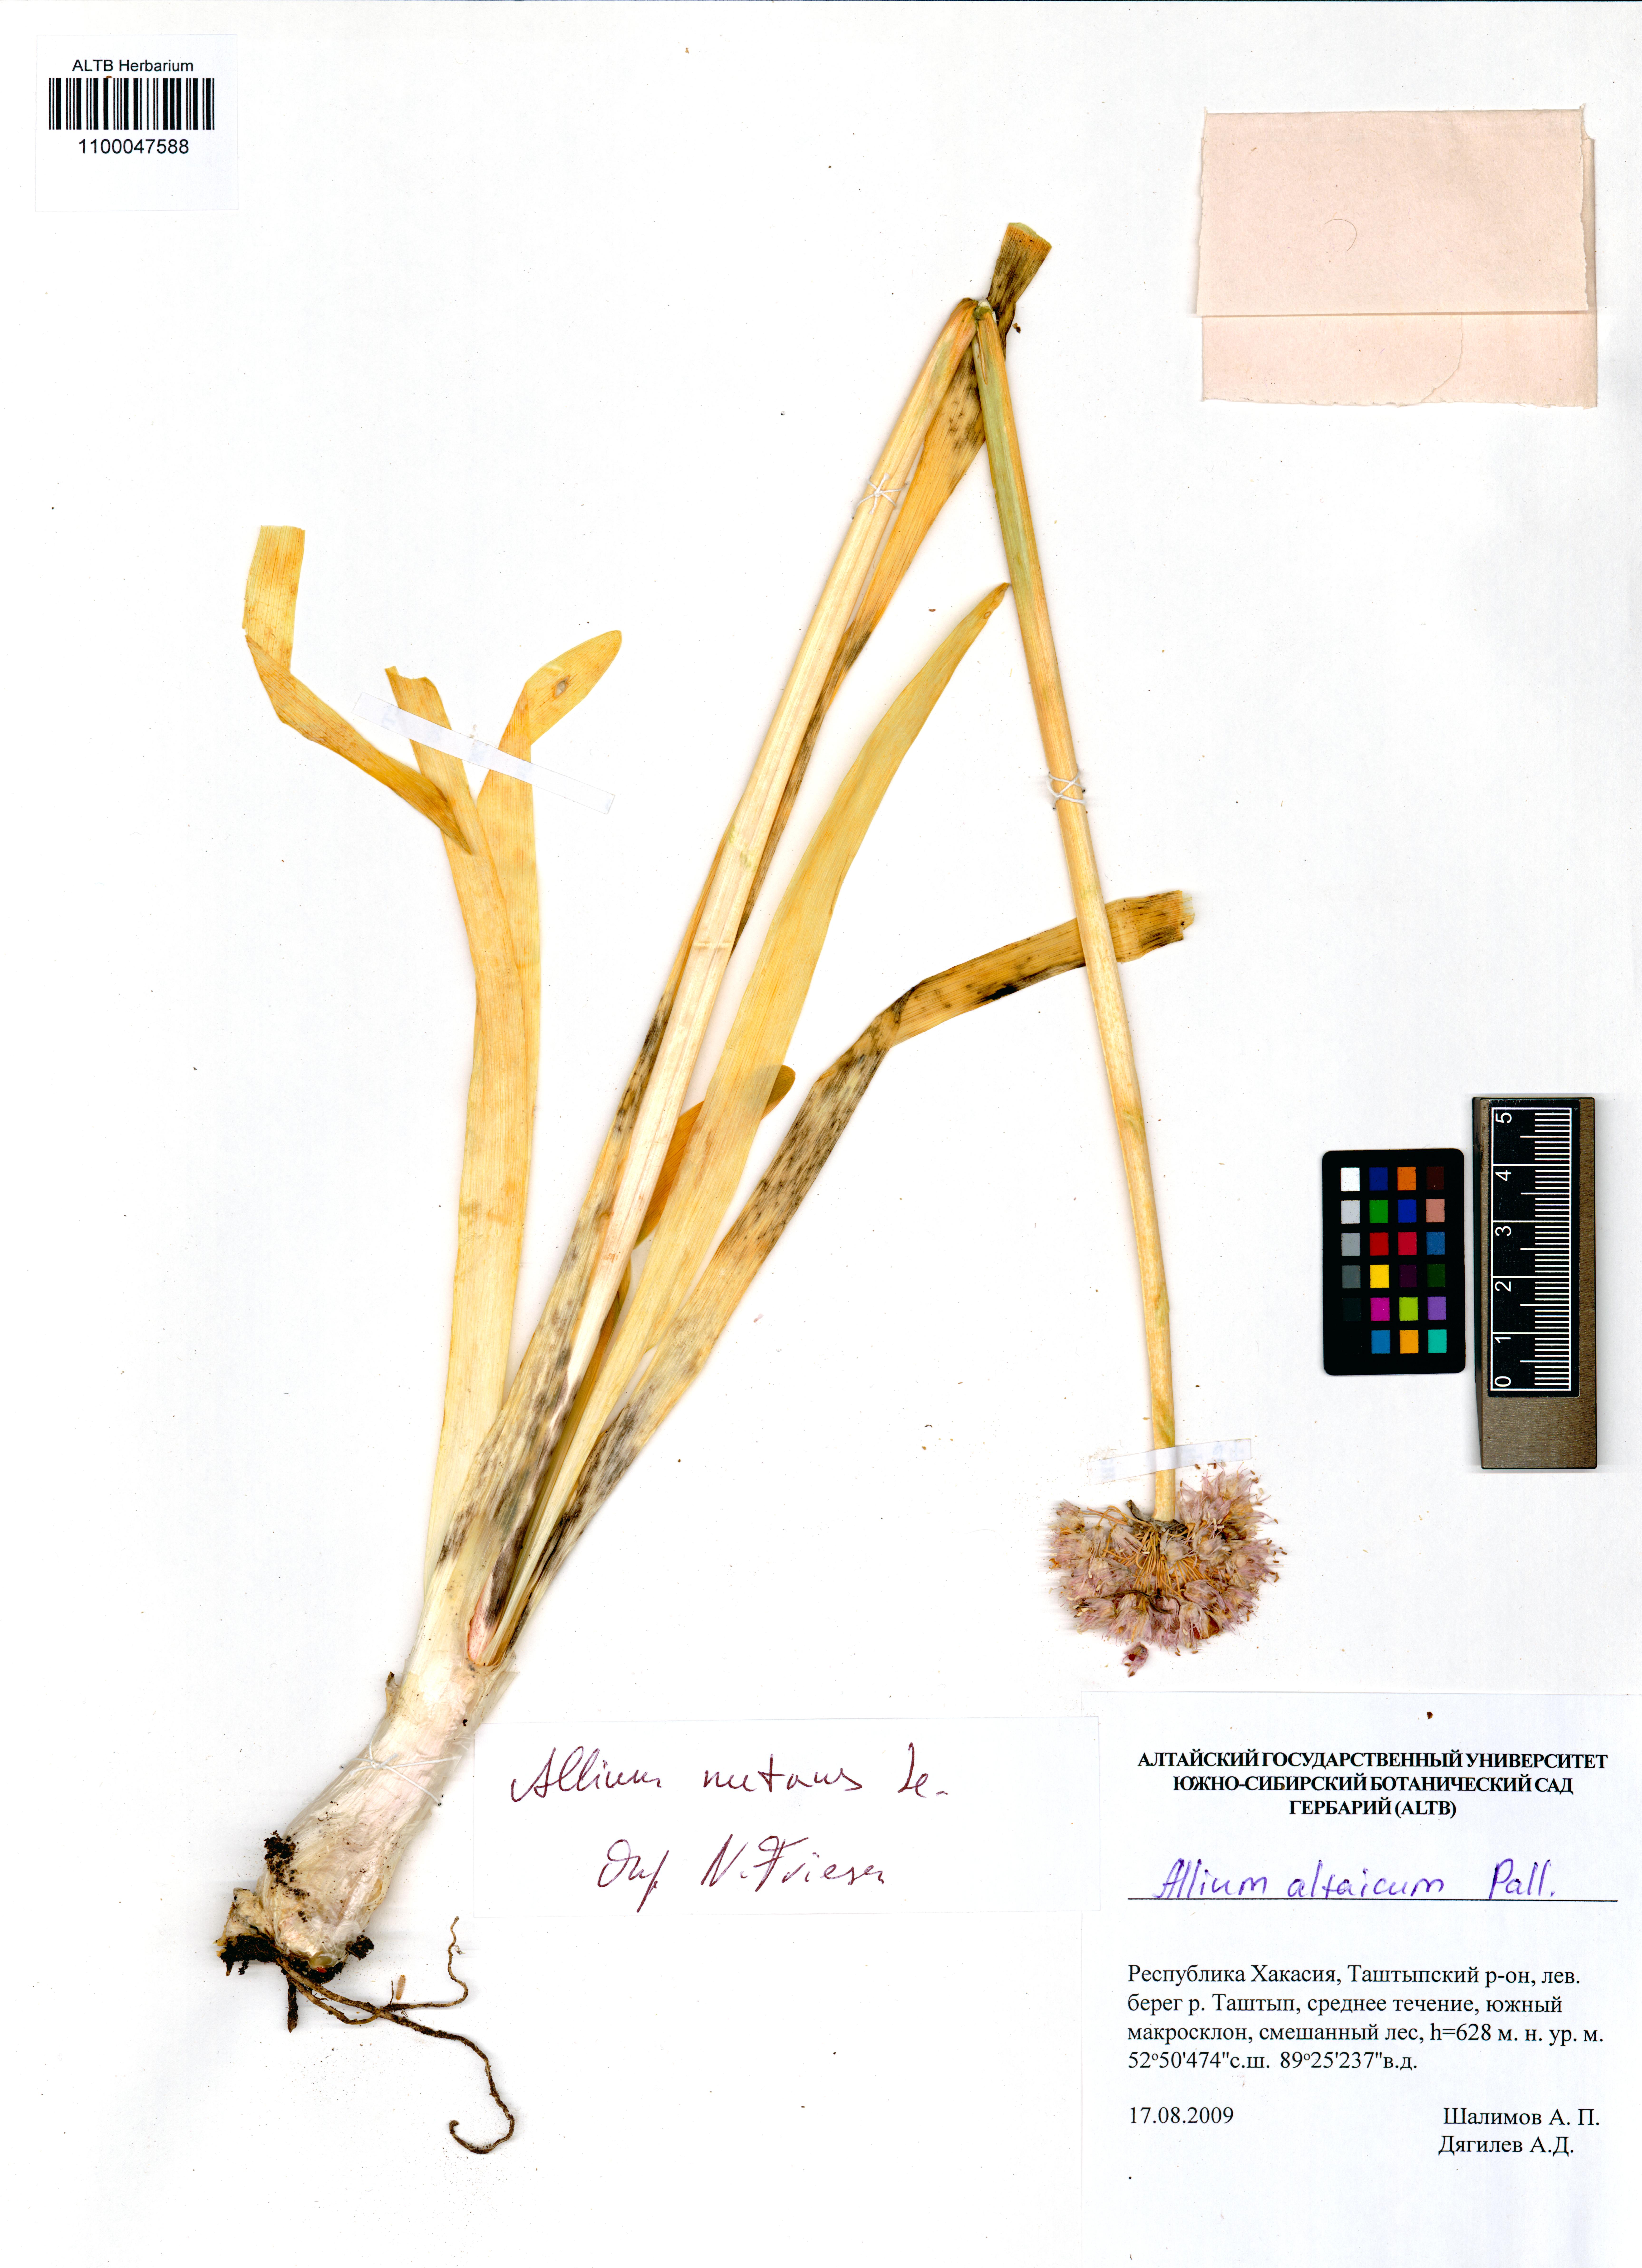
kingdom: Plantae
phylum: Tracheophyta
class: Liliopsida
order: Asparagales
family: Amaryllidaceae
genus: Allium
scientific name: Allium nutans
